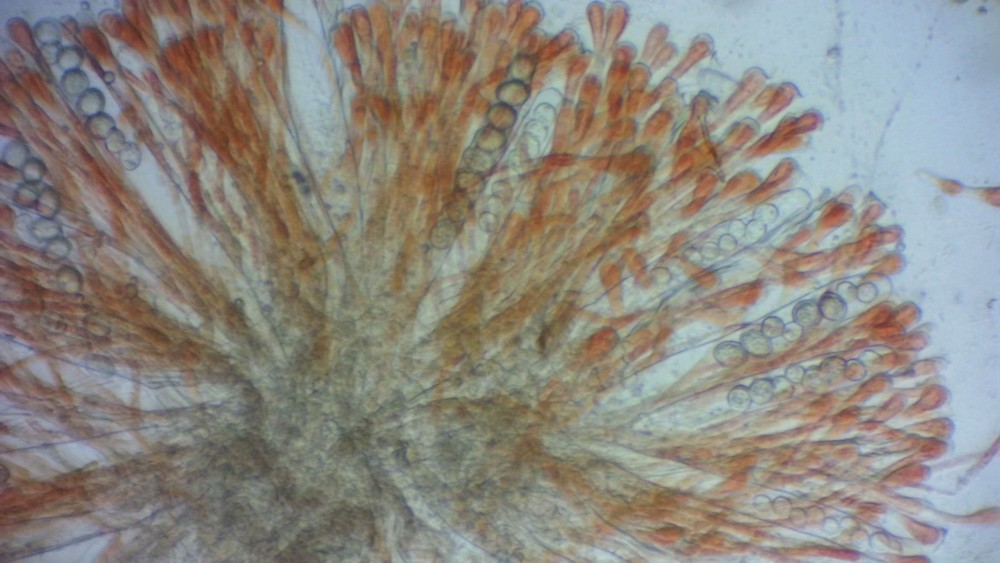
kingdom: Fungi
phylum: Ascomycota
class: Pezizomycetes
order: Pezizales
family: Pyronemataceae
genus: Scutellinia
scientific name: Scutellinia
